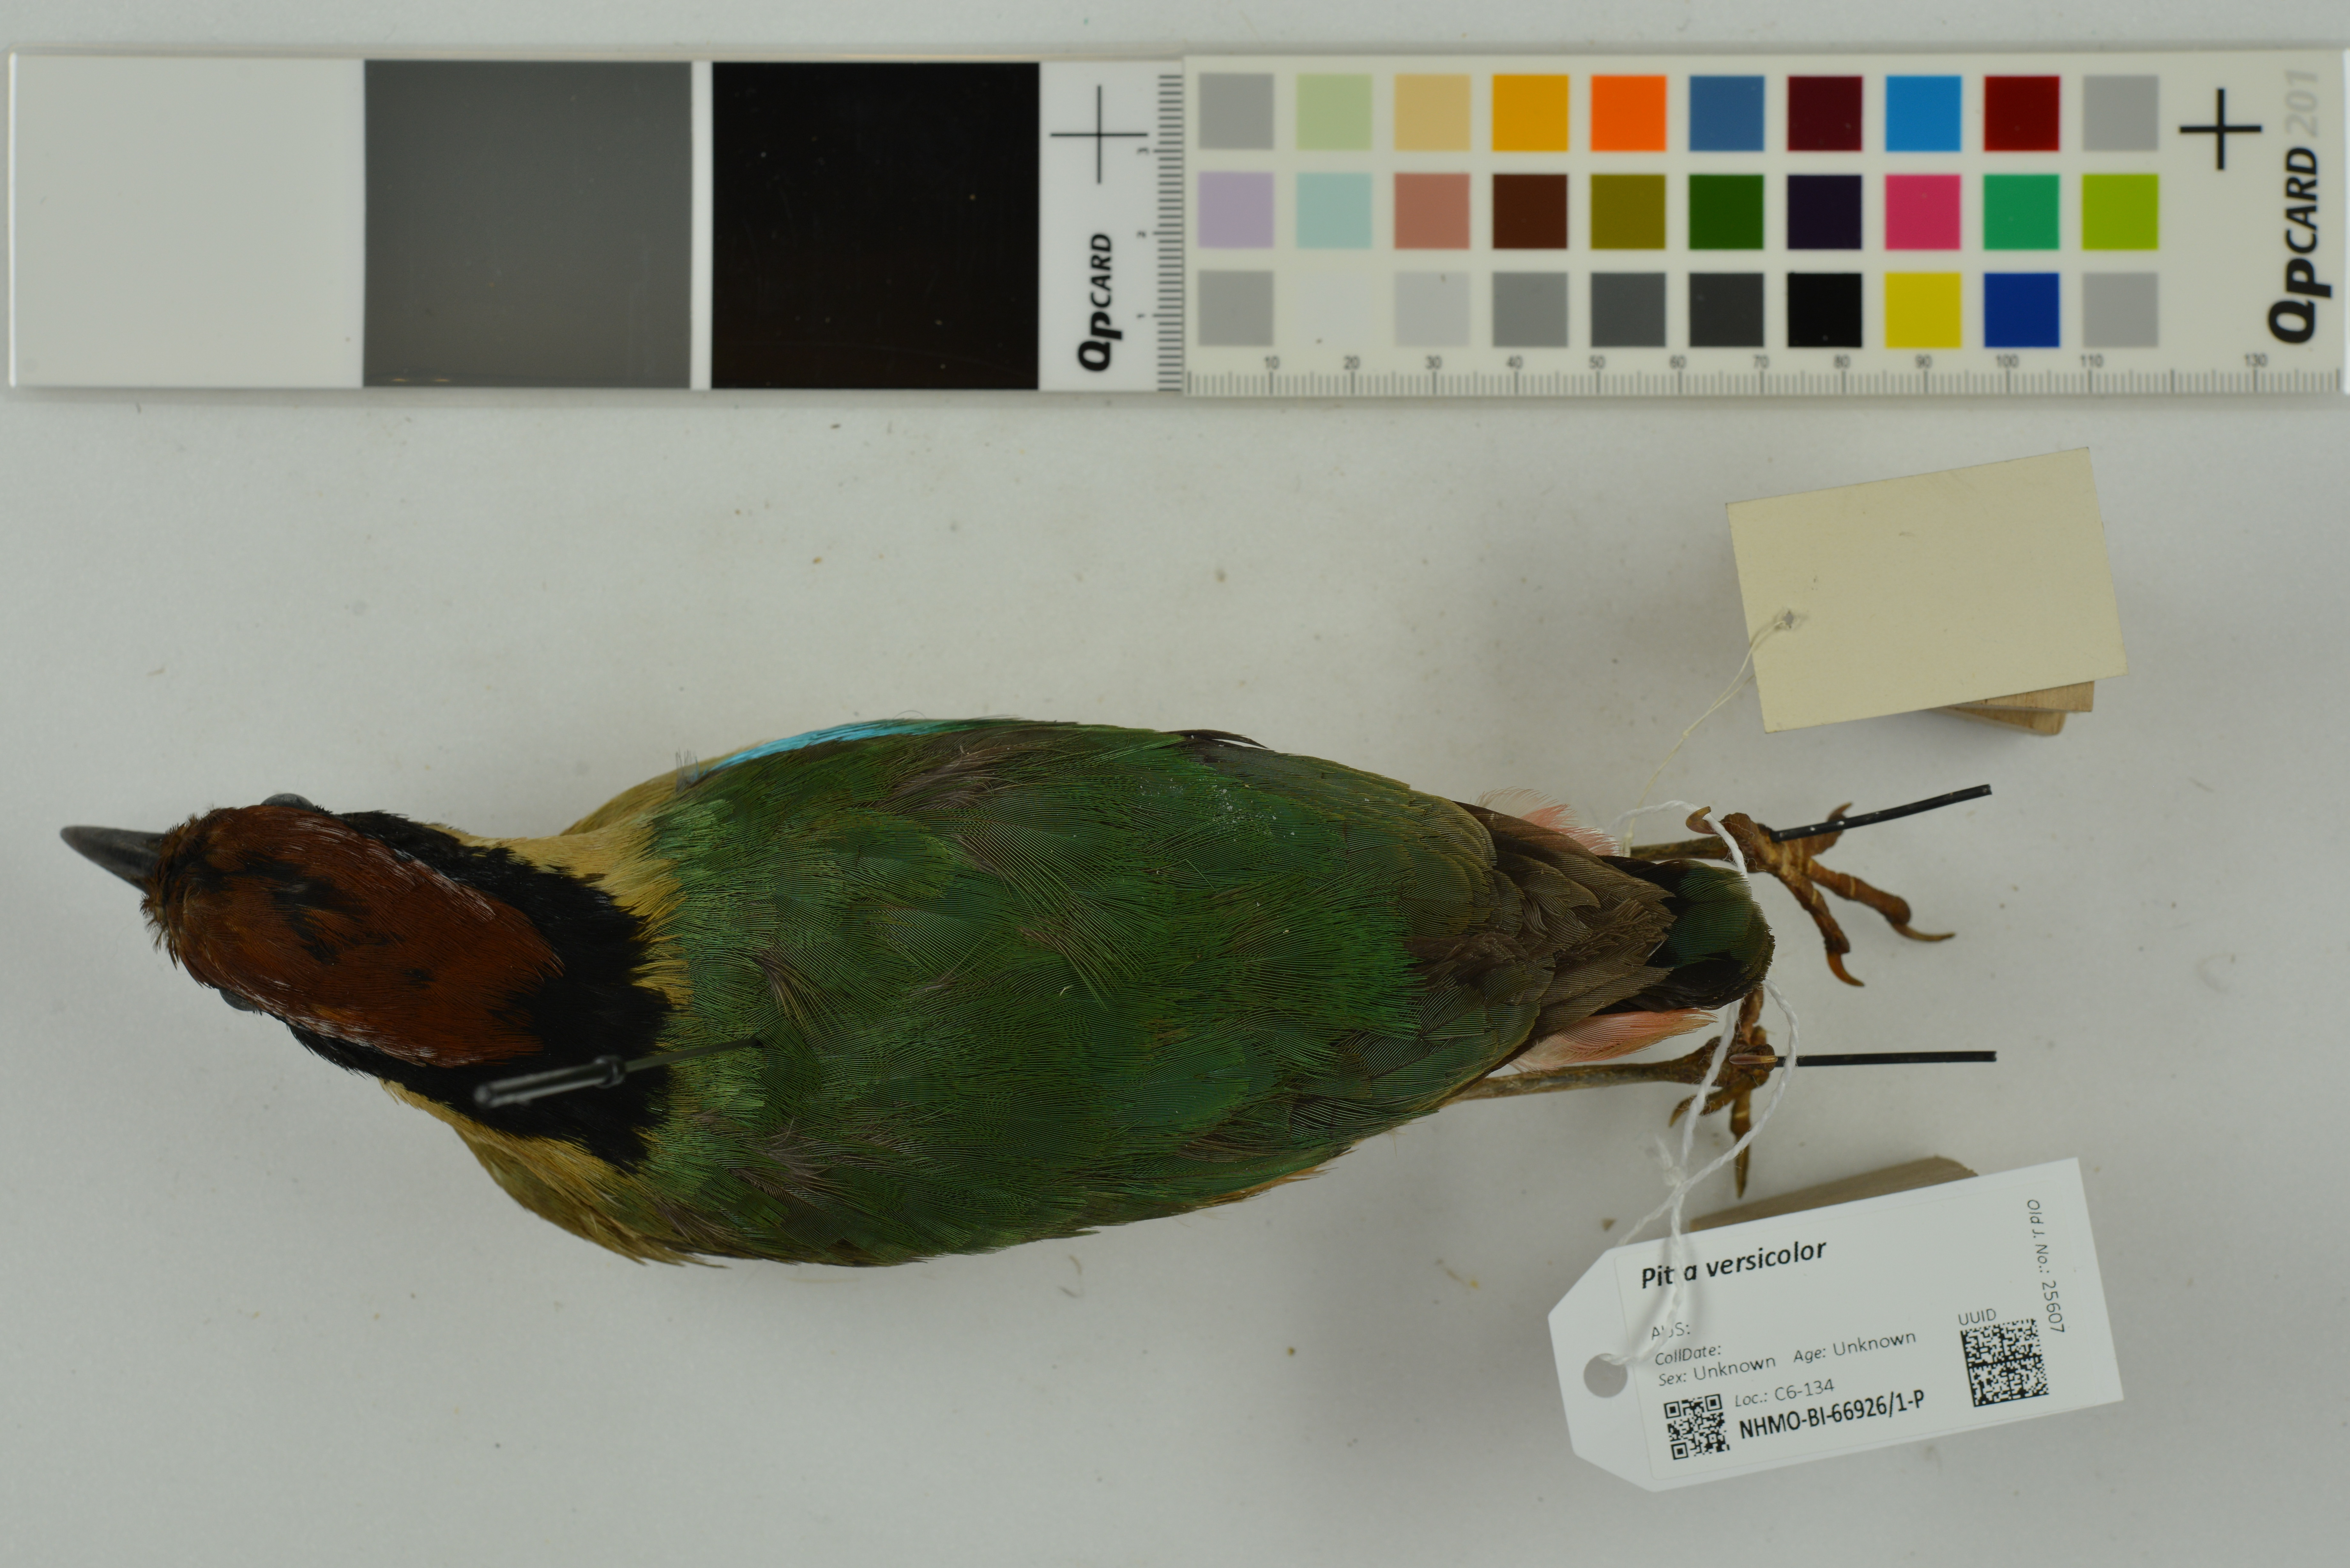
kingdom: Animalia
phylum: Chordata
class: Aves
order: Passeriformes
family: Pittidae
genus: Pitta
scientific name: Pitta versicolor
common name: Noisy pitta
